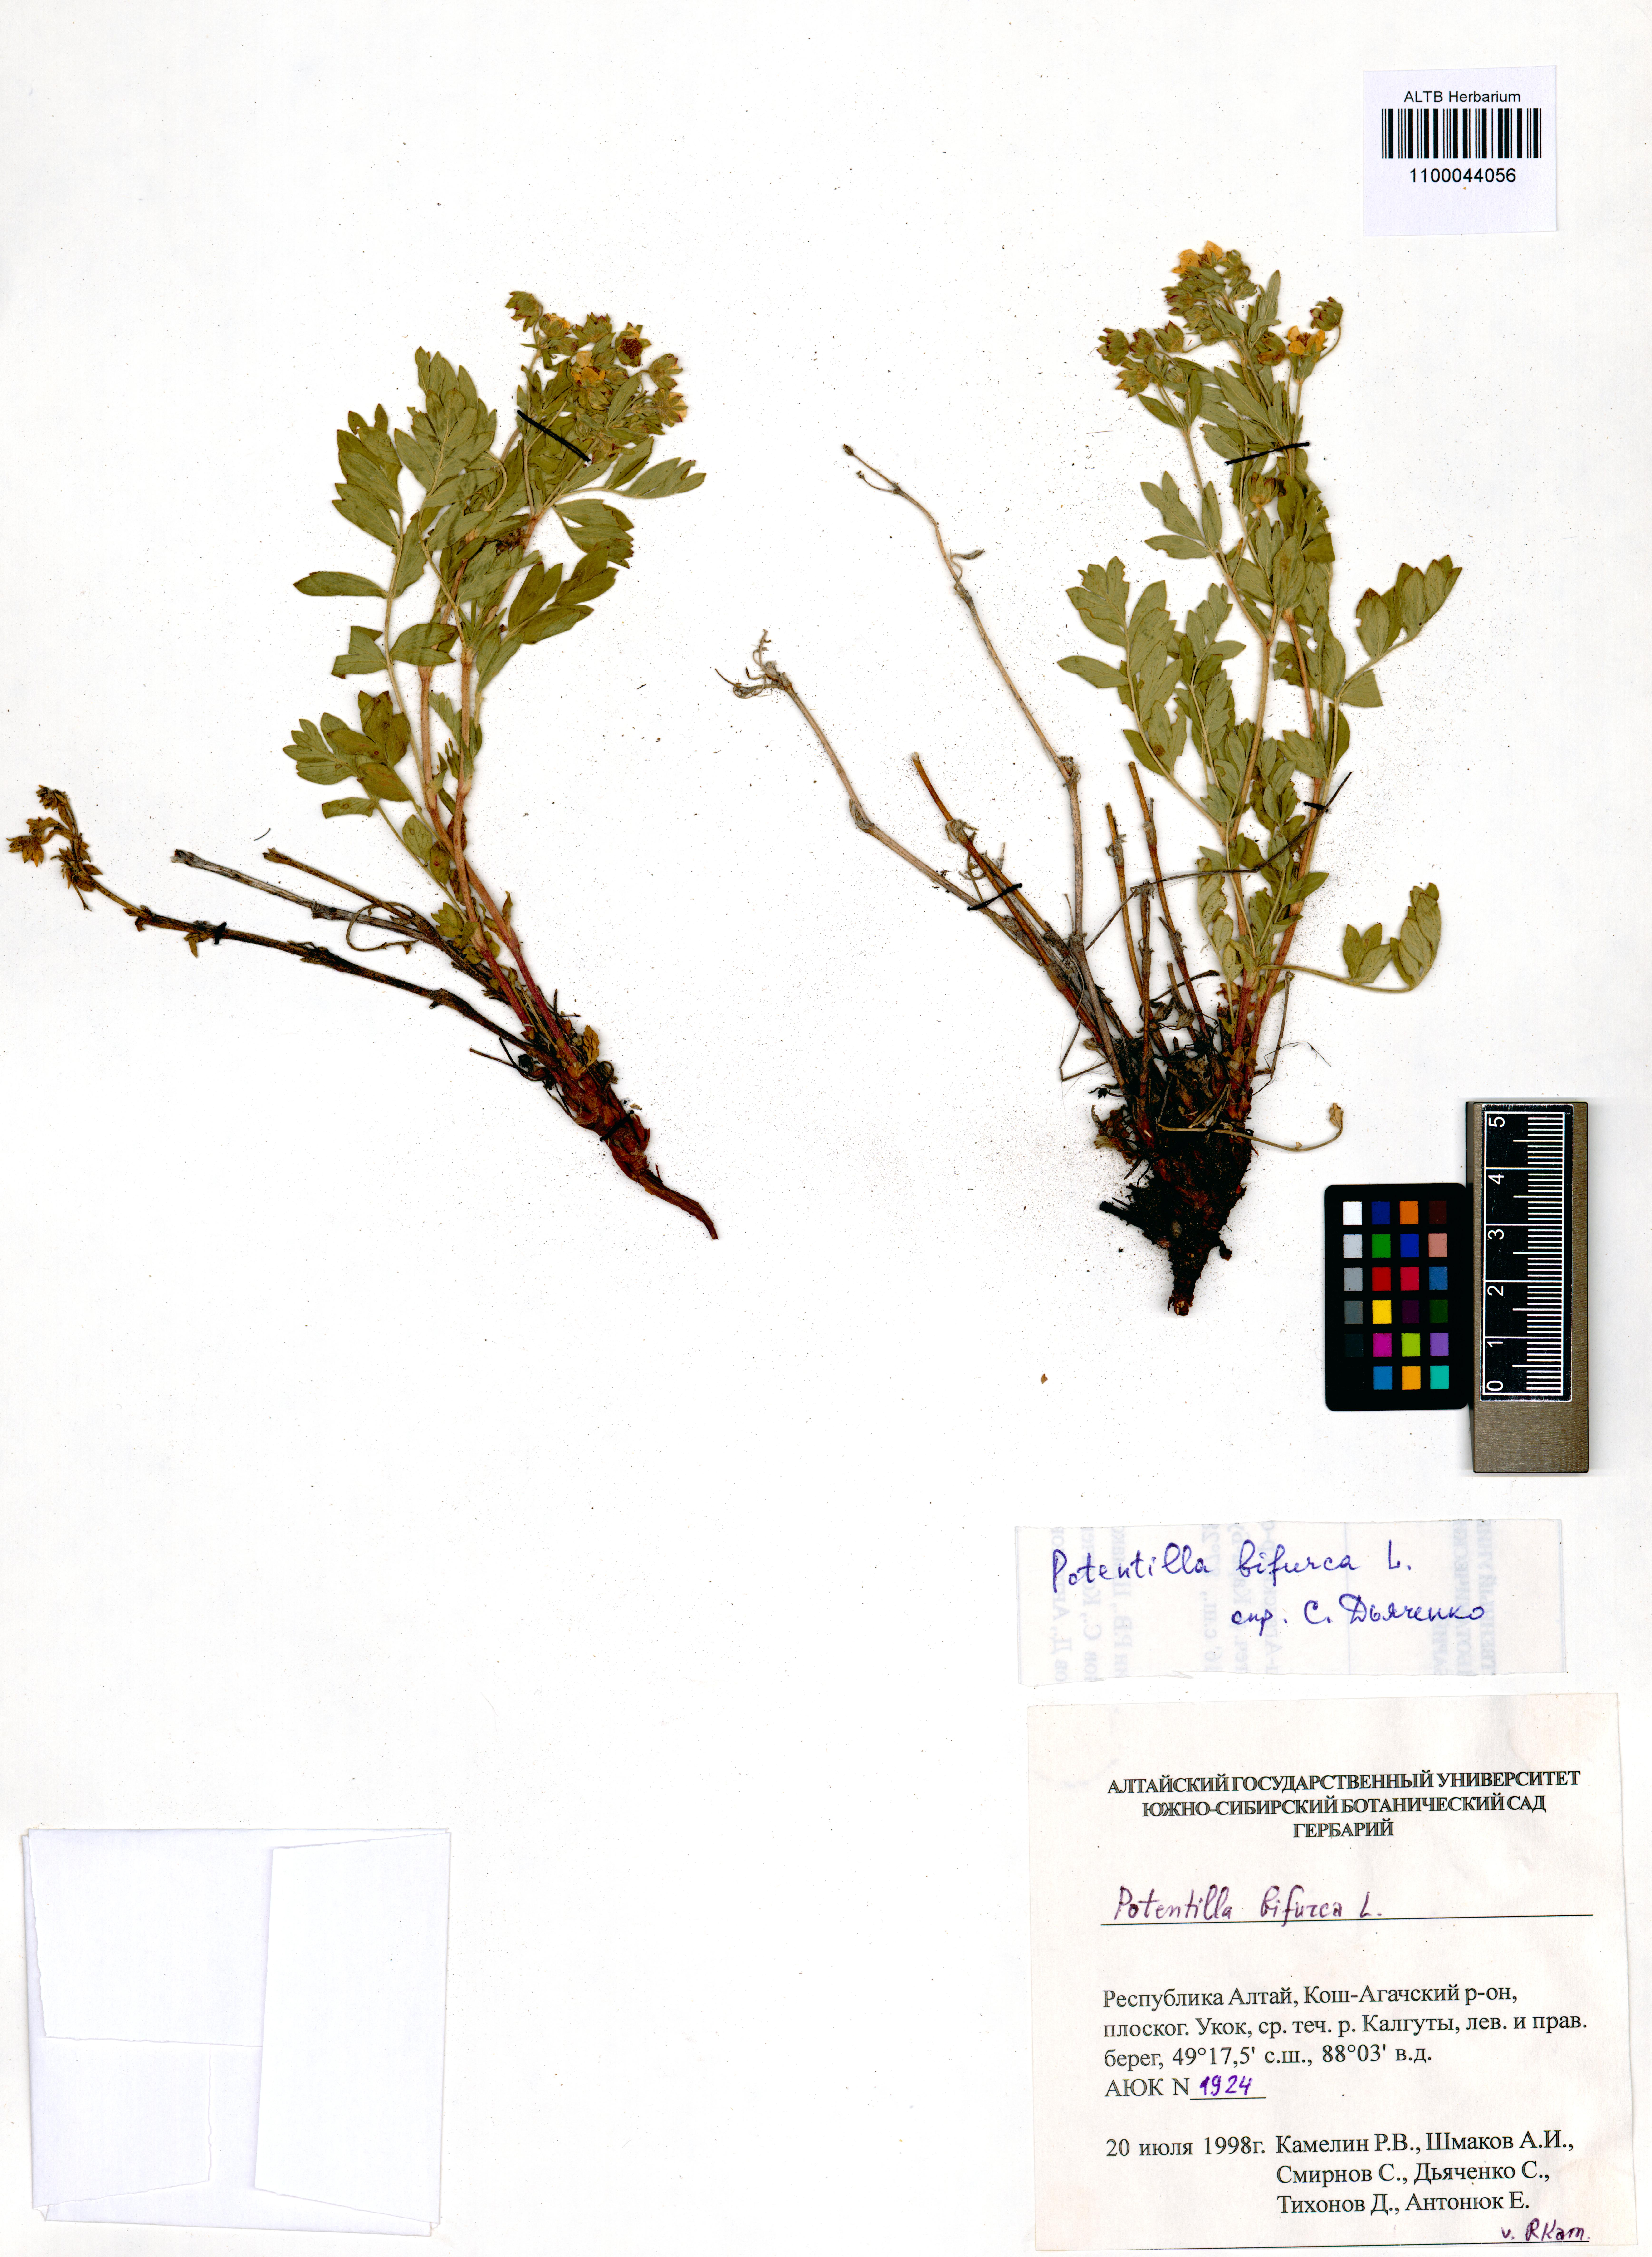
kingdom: Plantae
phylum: Tracheophyta
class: Magnoliopsida
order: Rosales
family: Rosaceae
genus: Sibbaldianthe
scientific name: Sibbaldianthe bifurca
